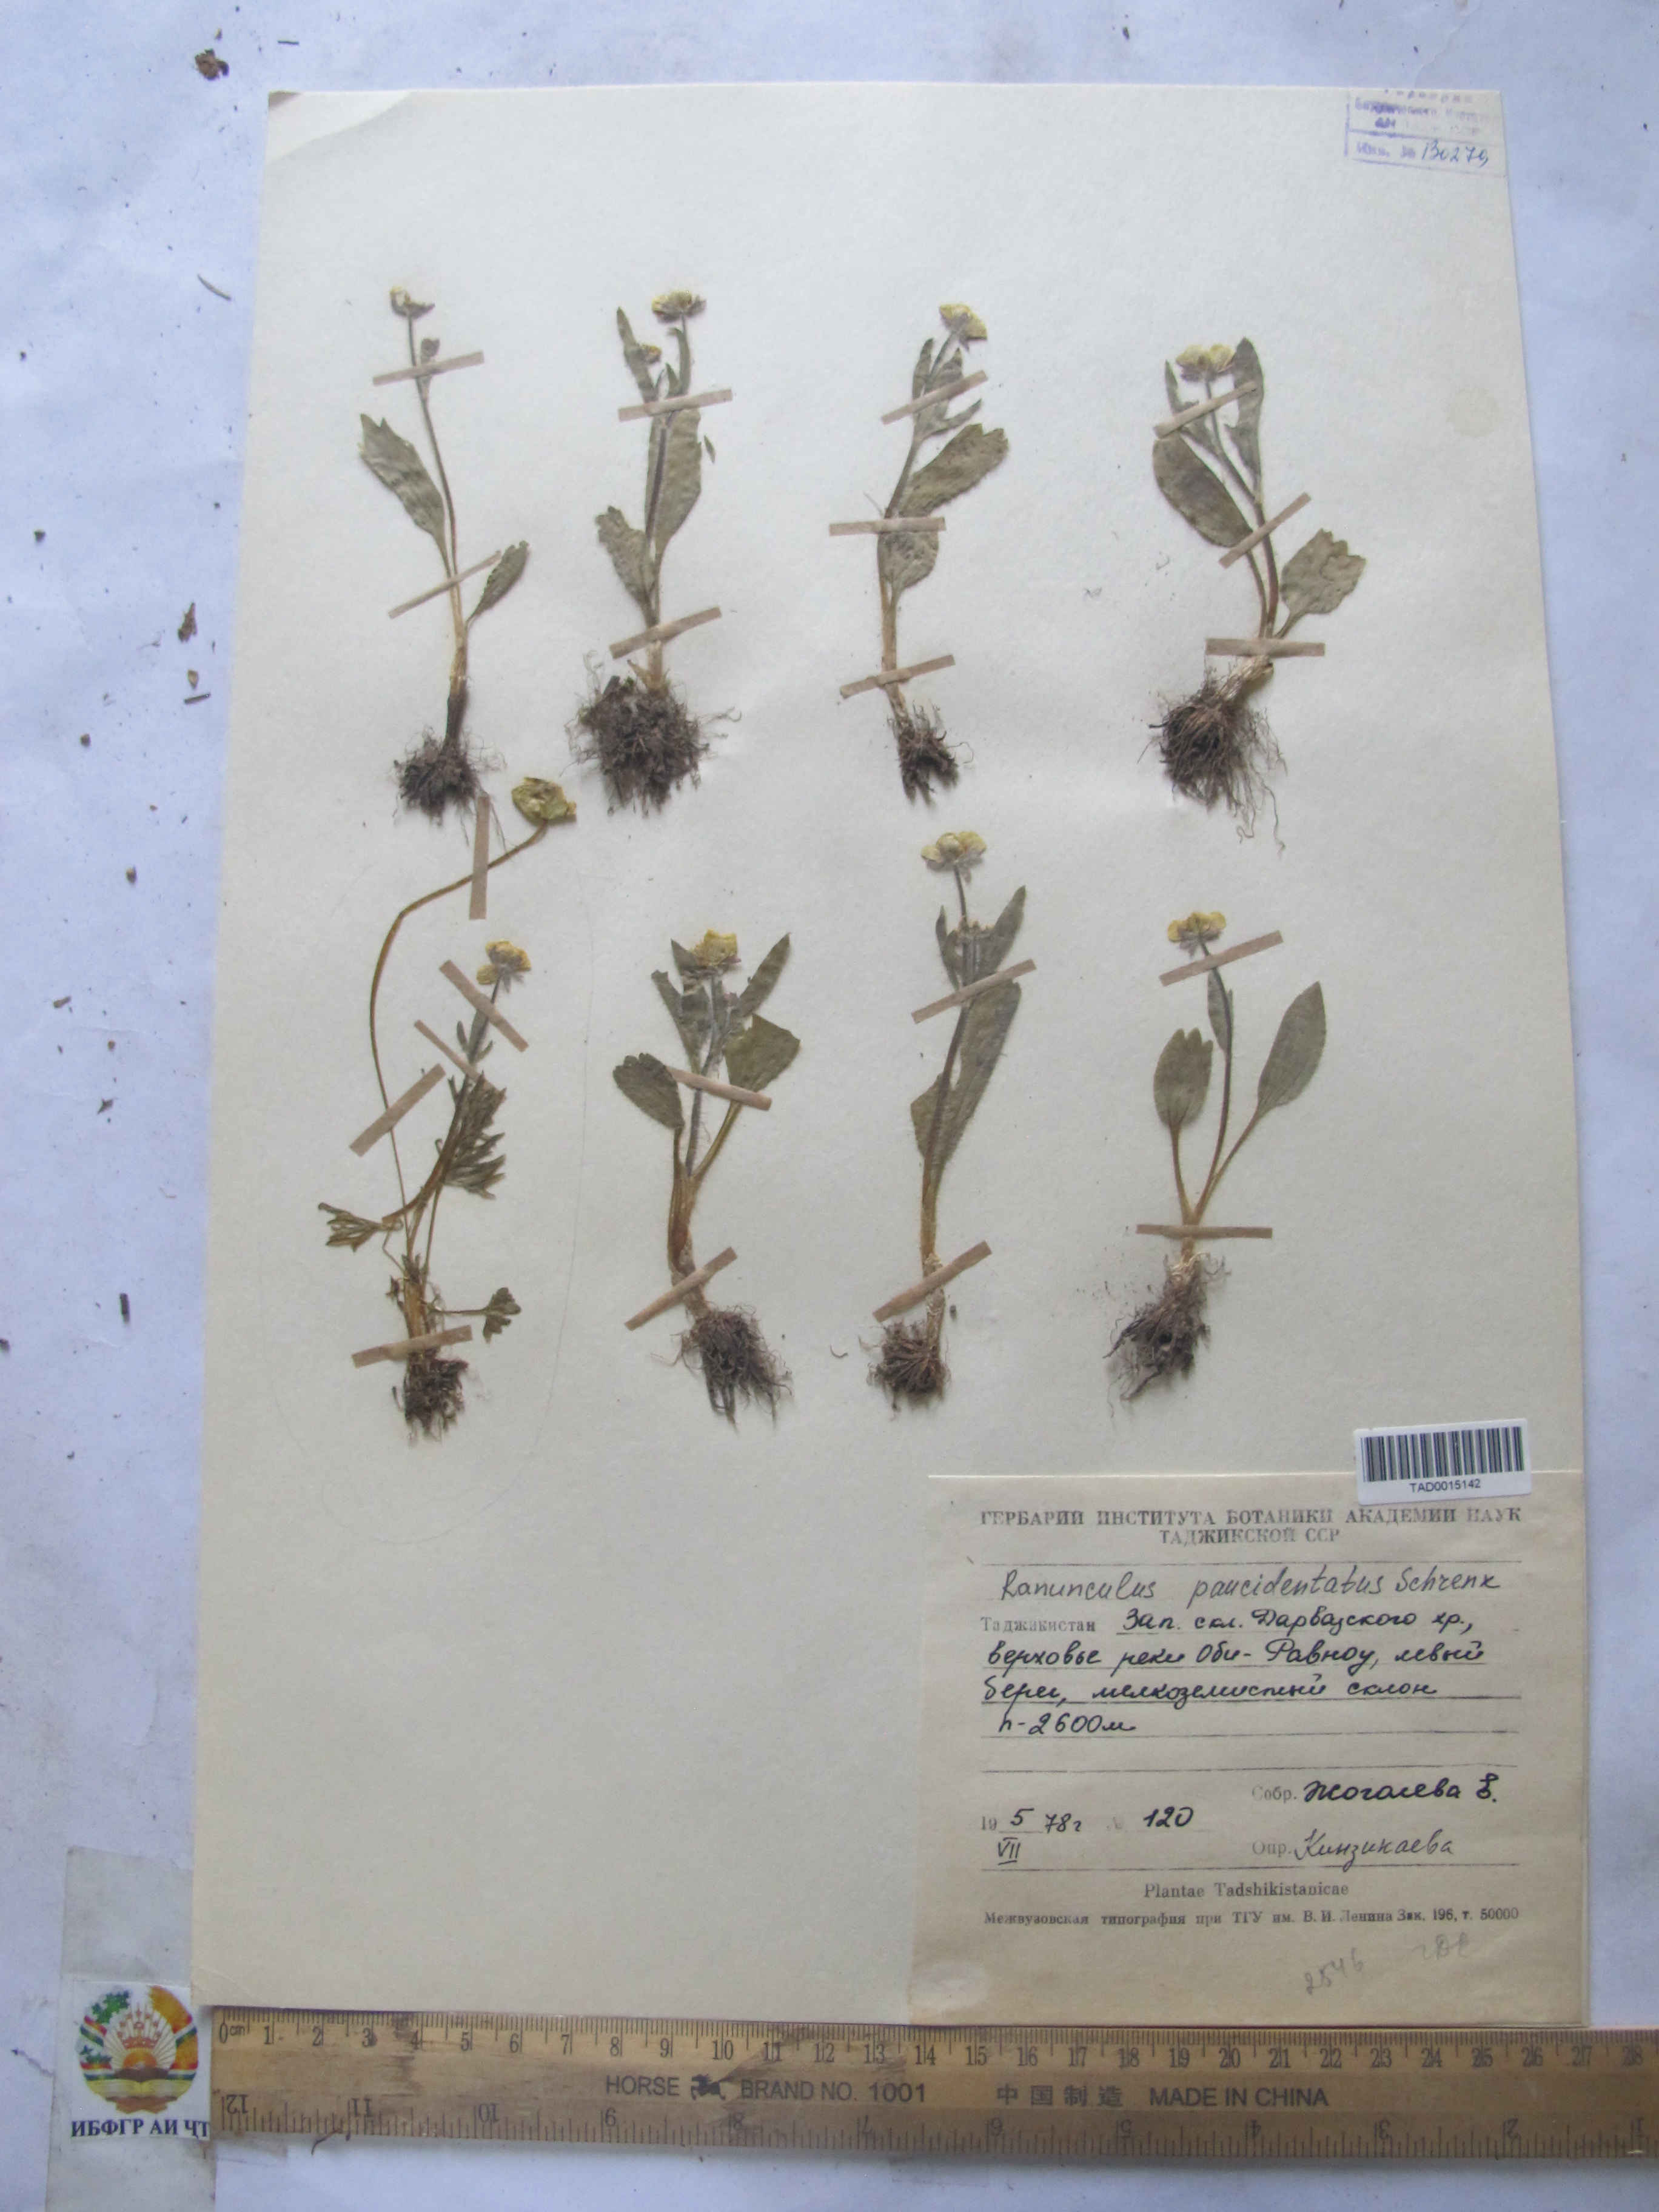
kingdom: Plantae
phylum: Tracheophyta
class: Magnoliopsida
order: Ranunculales
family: Ranunculaceae
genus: Ranunculus
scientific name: Ranunculus paucidentatus
